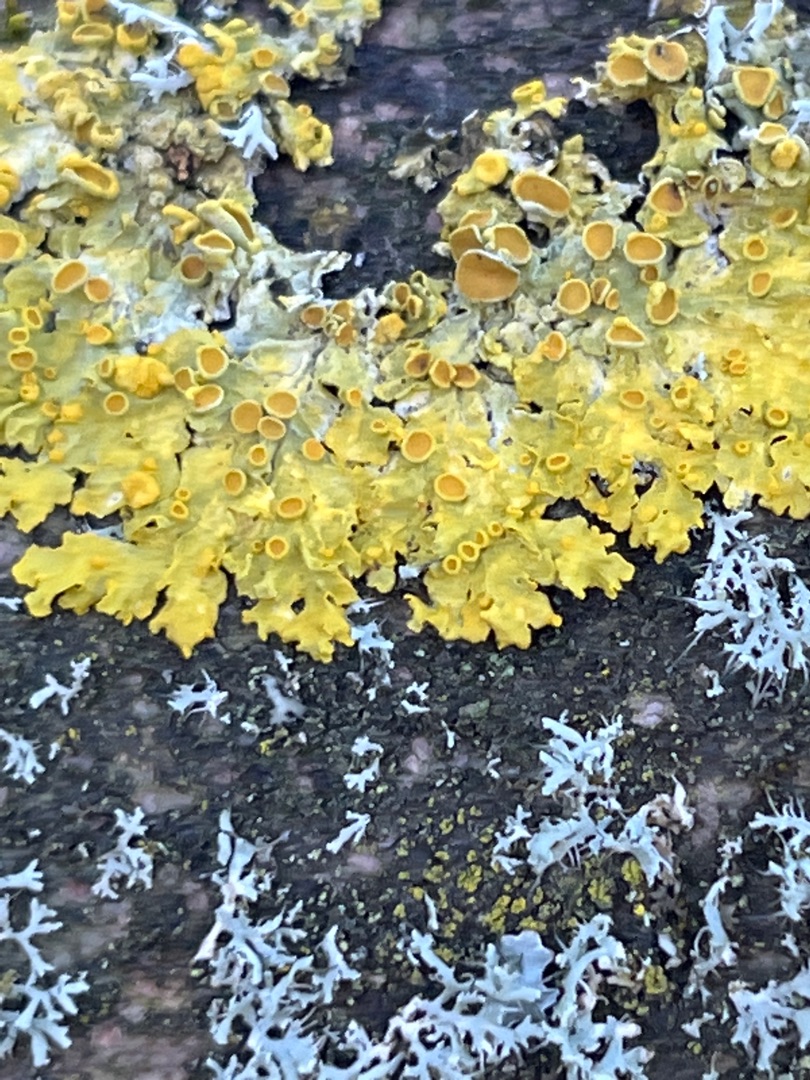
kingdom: Fungi
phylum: Ascomycota
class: Lecanoromycetes
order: Teloschistales
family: Teloschistaceae
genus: Xanthoria
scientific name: Xanthoria parietina
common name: Almindelig væggelav
